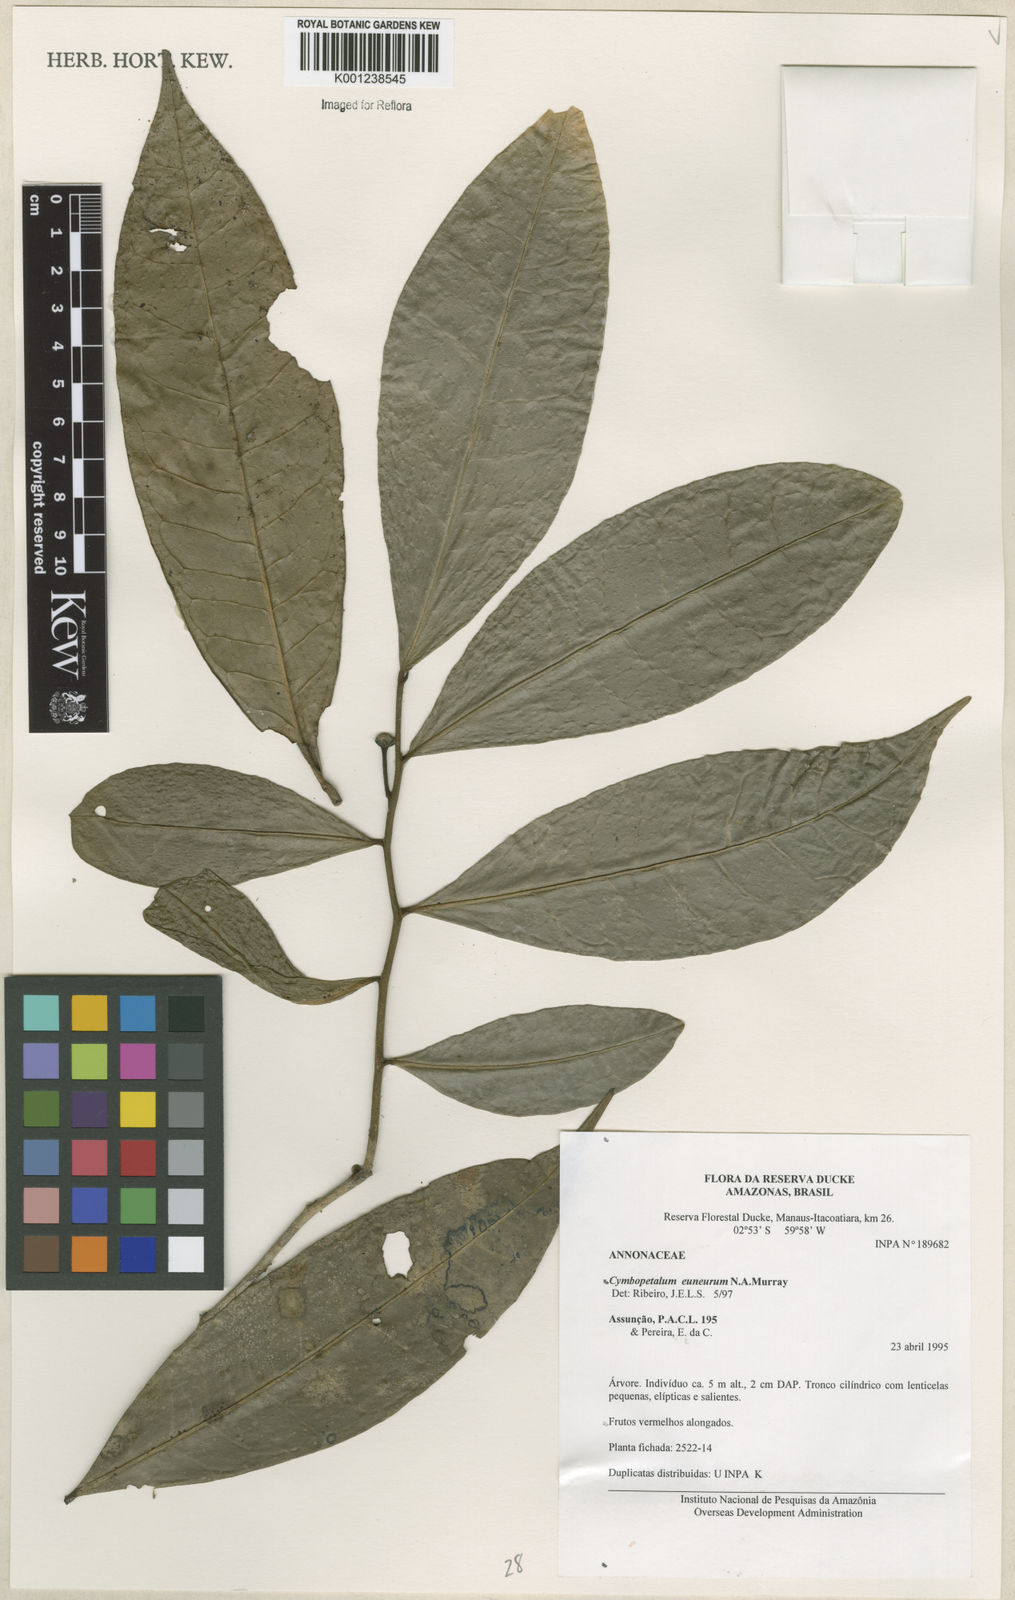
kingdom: Plantae
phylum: Tracheophyta
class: Magnoliopsida
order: Magnoliales
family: Annonaceae
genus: Cymbopetalum
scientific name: Cymbopetalum euneurum
